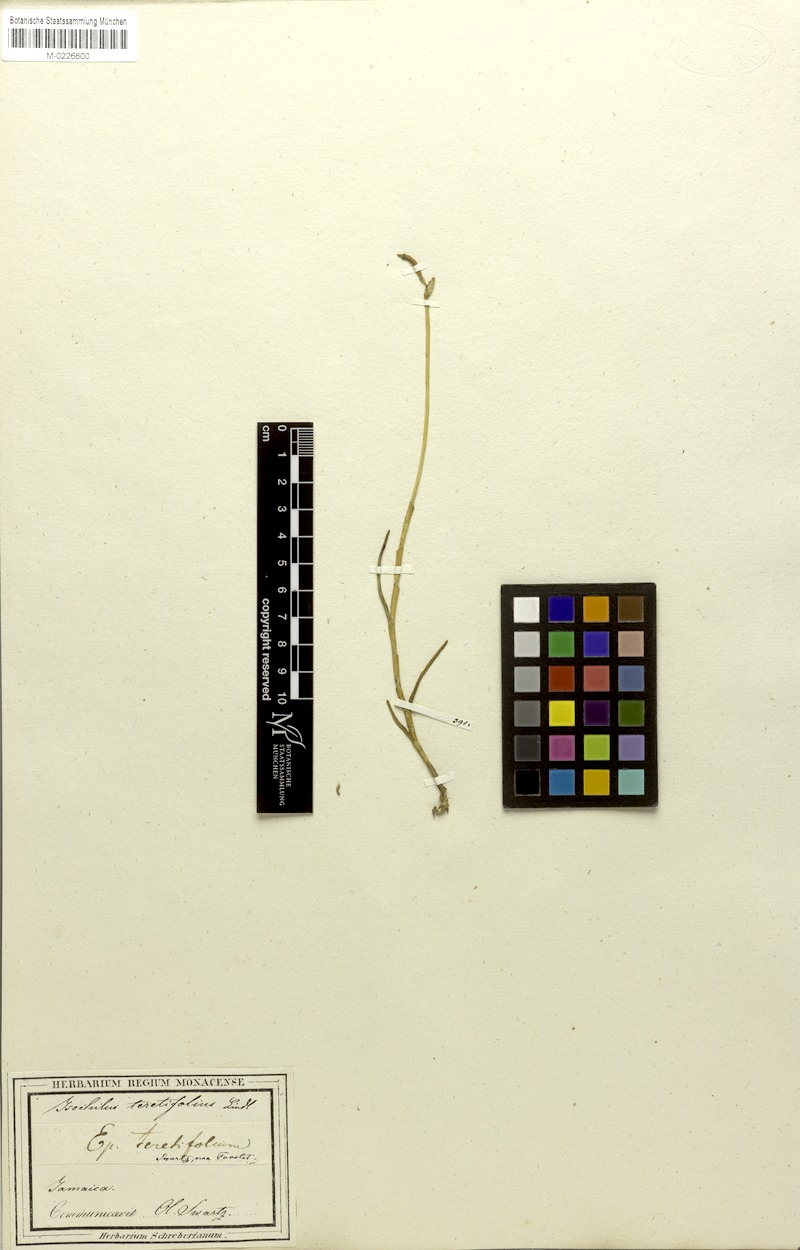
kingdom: Plantae
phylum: Tracheophyta
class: Liliopsida
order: Asparagales
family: Orchidaceae
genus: Jacquiniella
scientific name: Jacquiniella teretifolia
